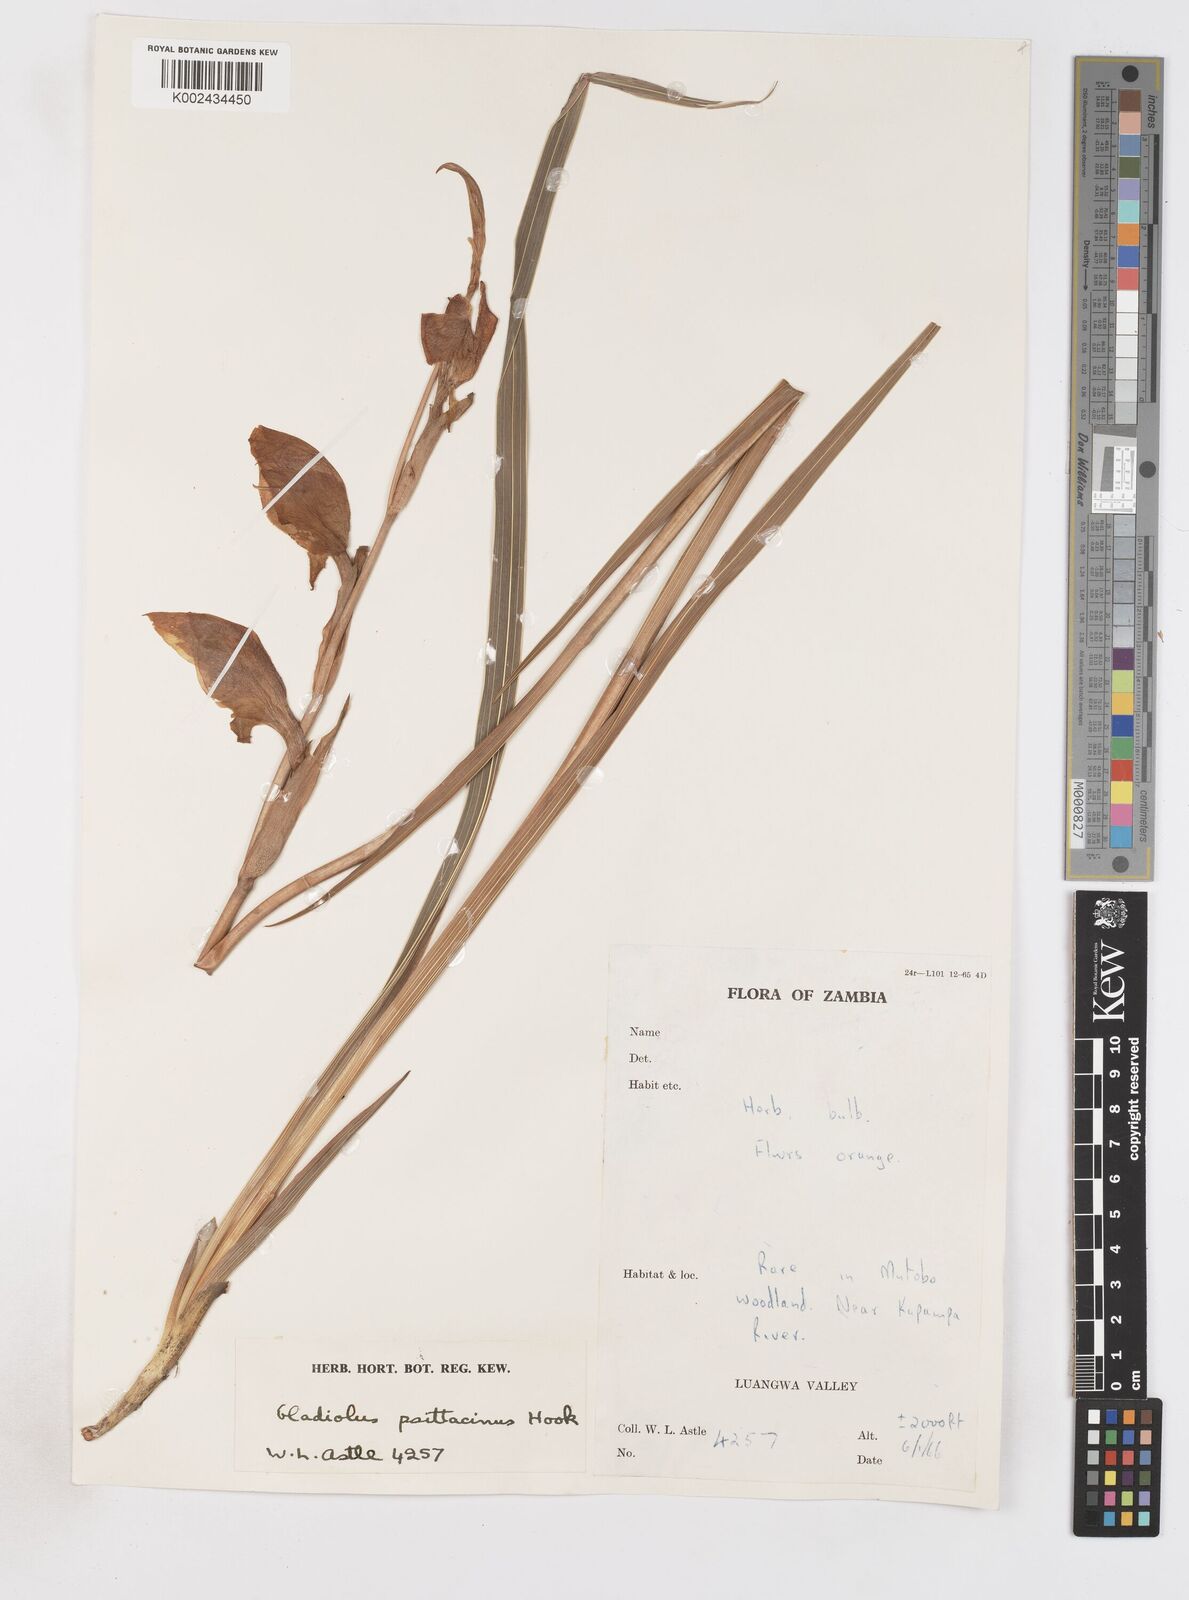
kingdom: Plantae
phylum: Tracheophyta
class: Liliopsida
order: Asparagales
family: Iridaceae
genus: Gladiolus
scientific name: Gladiolus dalenii
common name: Cornflag
